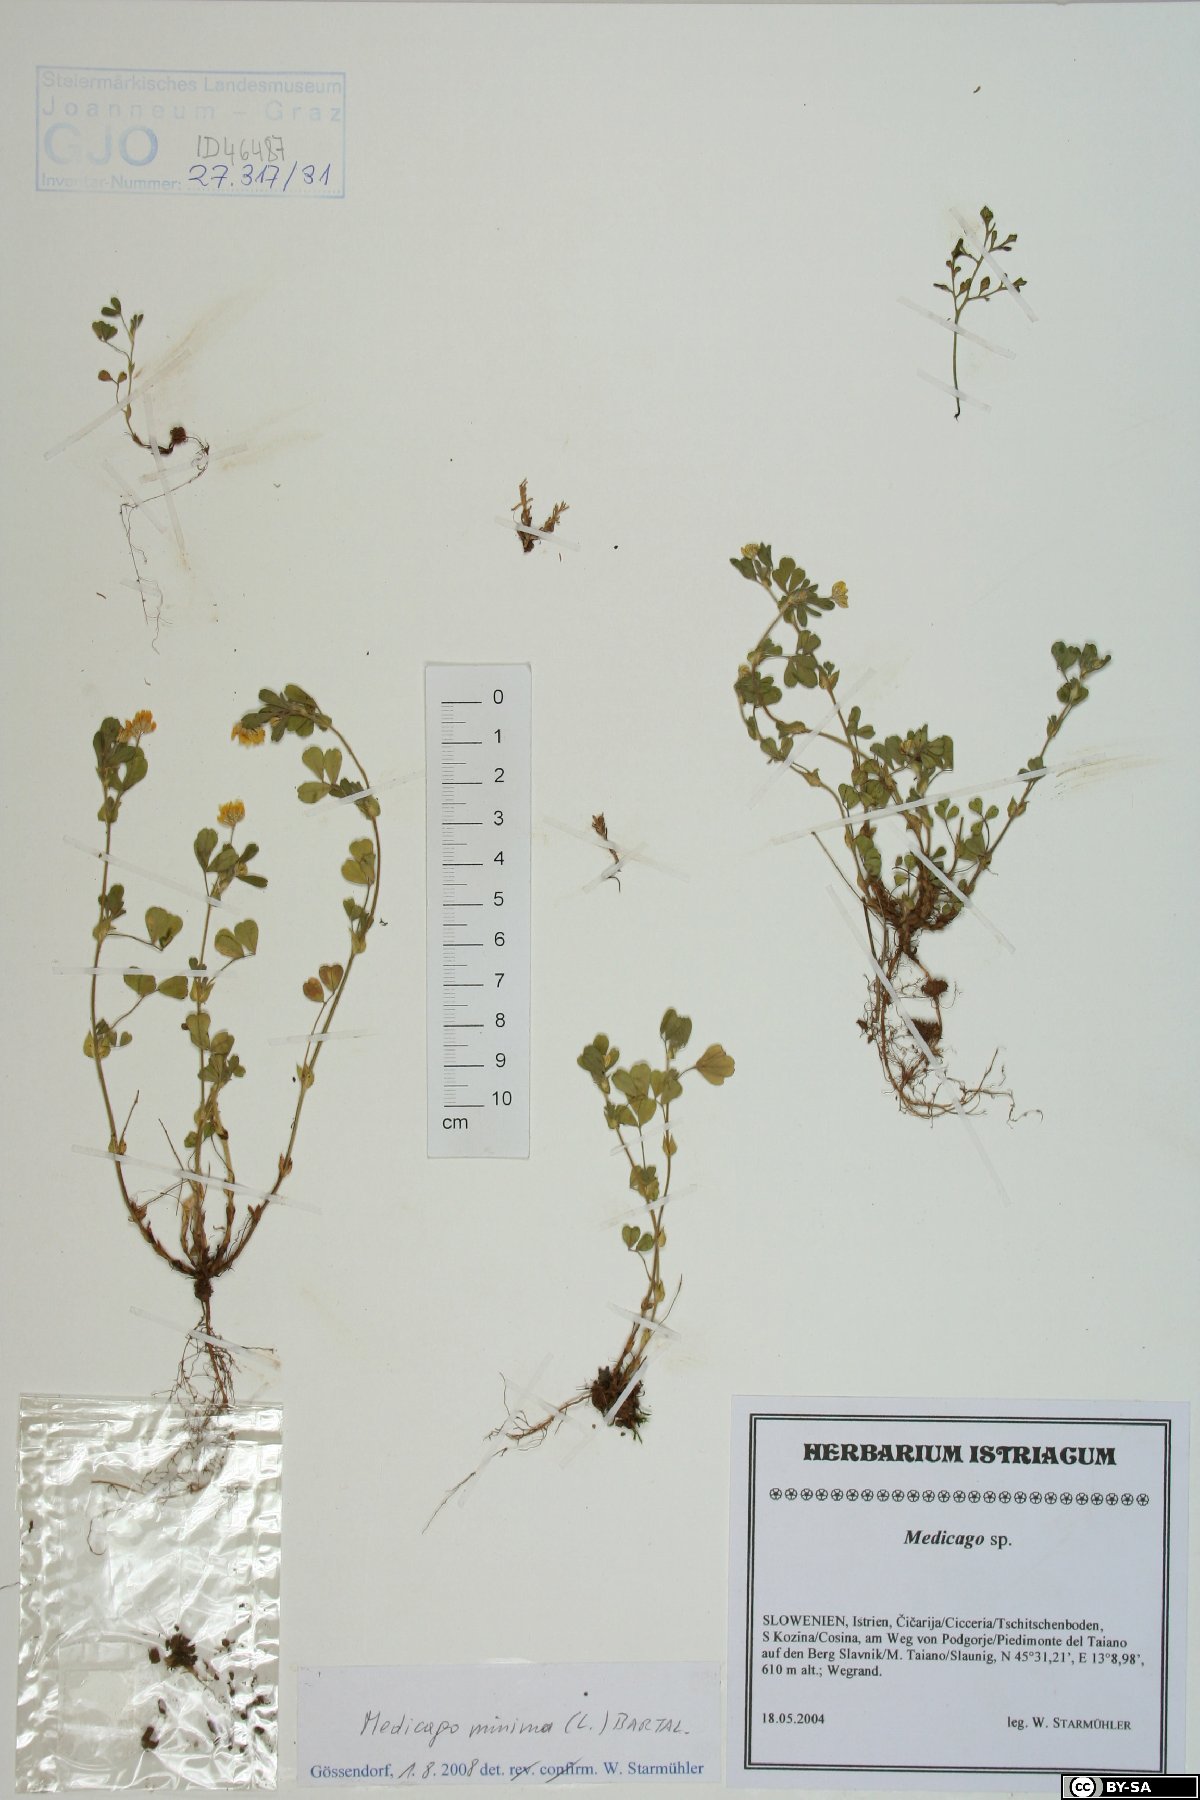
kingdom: Plantae
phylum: Tracheophyta
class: Magnoliopsida
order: Fabales
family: Fabaceae
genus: Medicago
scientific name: Medicago minima
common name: Little bur-clover
